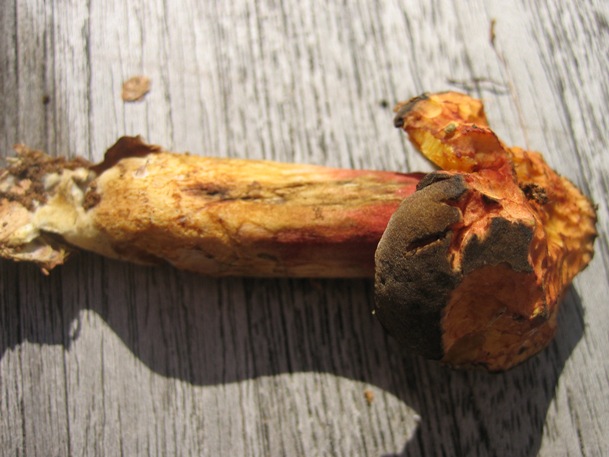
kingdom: Fungi
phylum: Basidiomycota
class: Agaricomycetes
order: Boletales
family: Boletaceae
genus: Xerocomellus
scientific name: Xerocomellus pruinatus
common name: dugget rørhat
